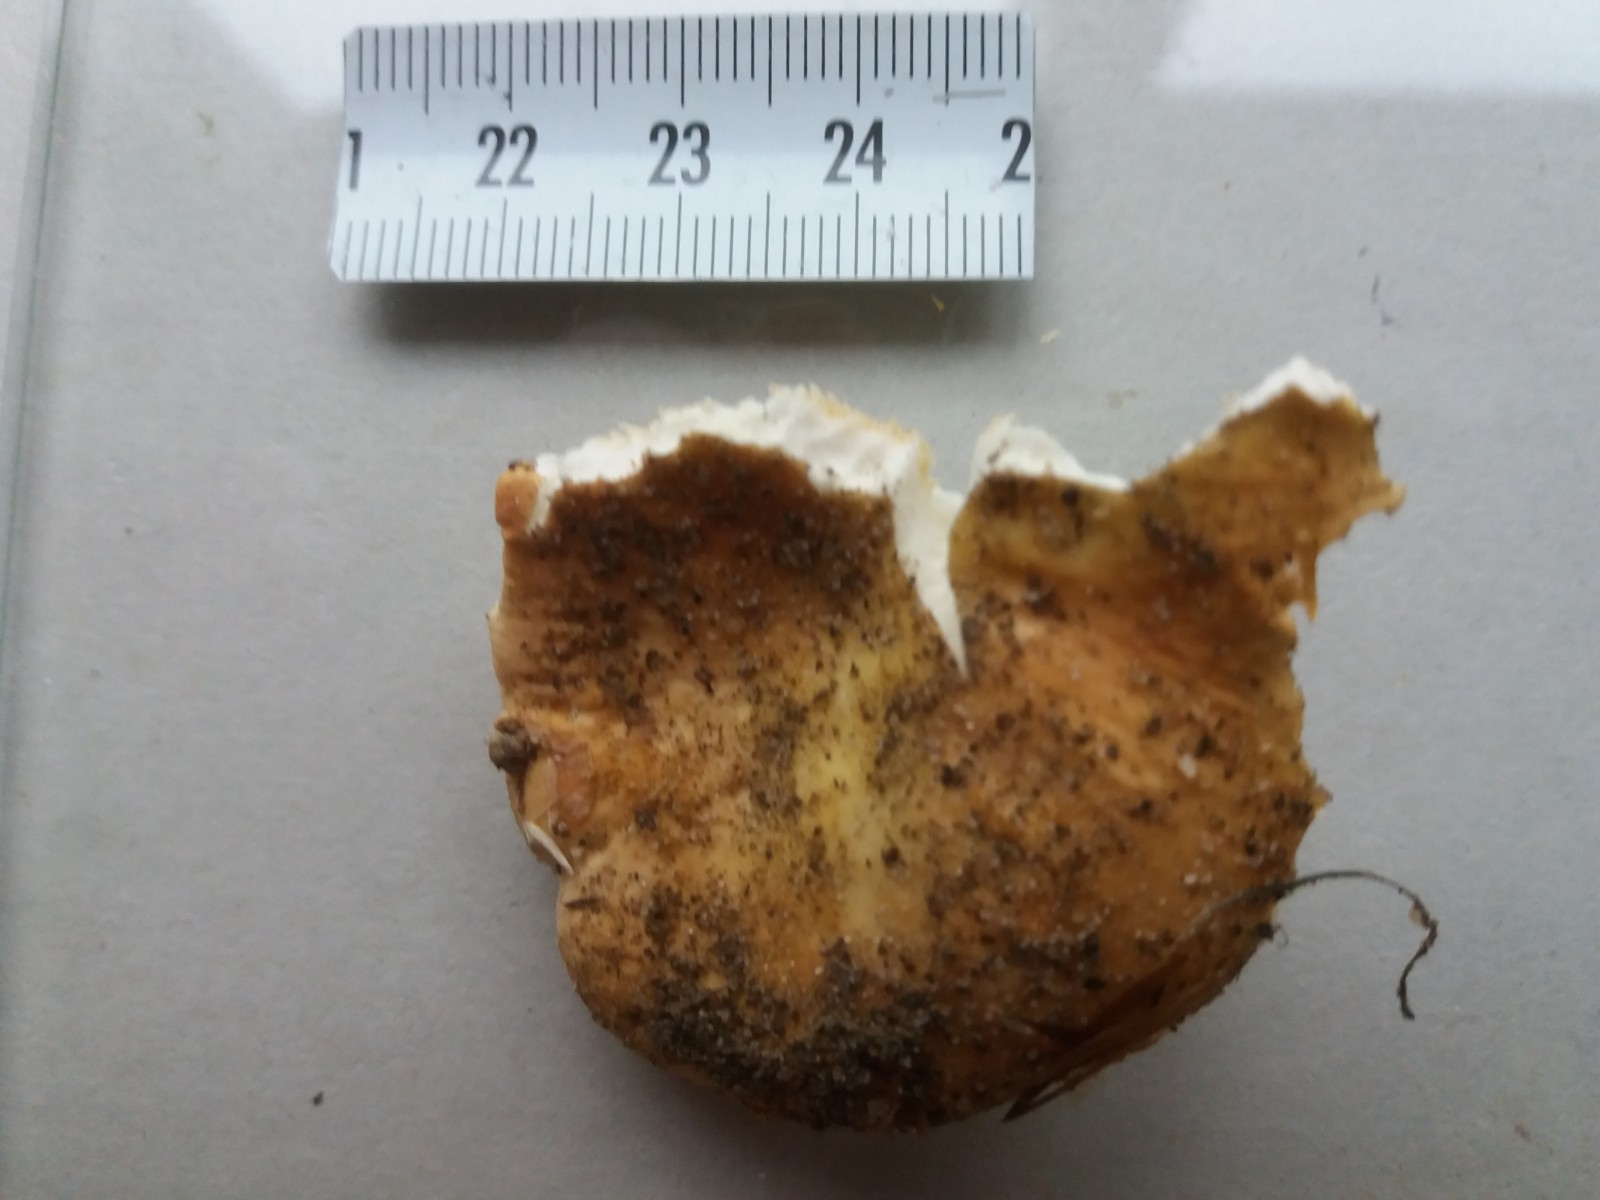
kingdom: Fungi
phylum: Basidiomycota
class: Agaricomycetes
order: Russulales
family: Russulaceae
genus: Russula
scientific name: Russula risigallina
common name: abrikos-skørhat
